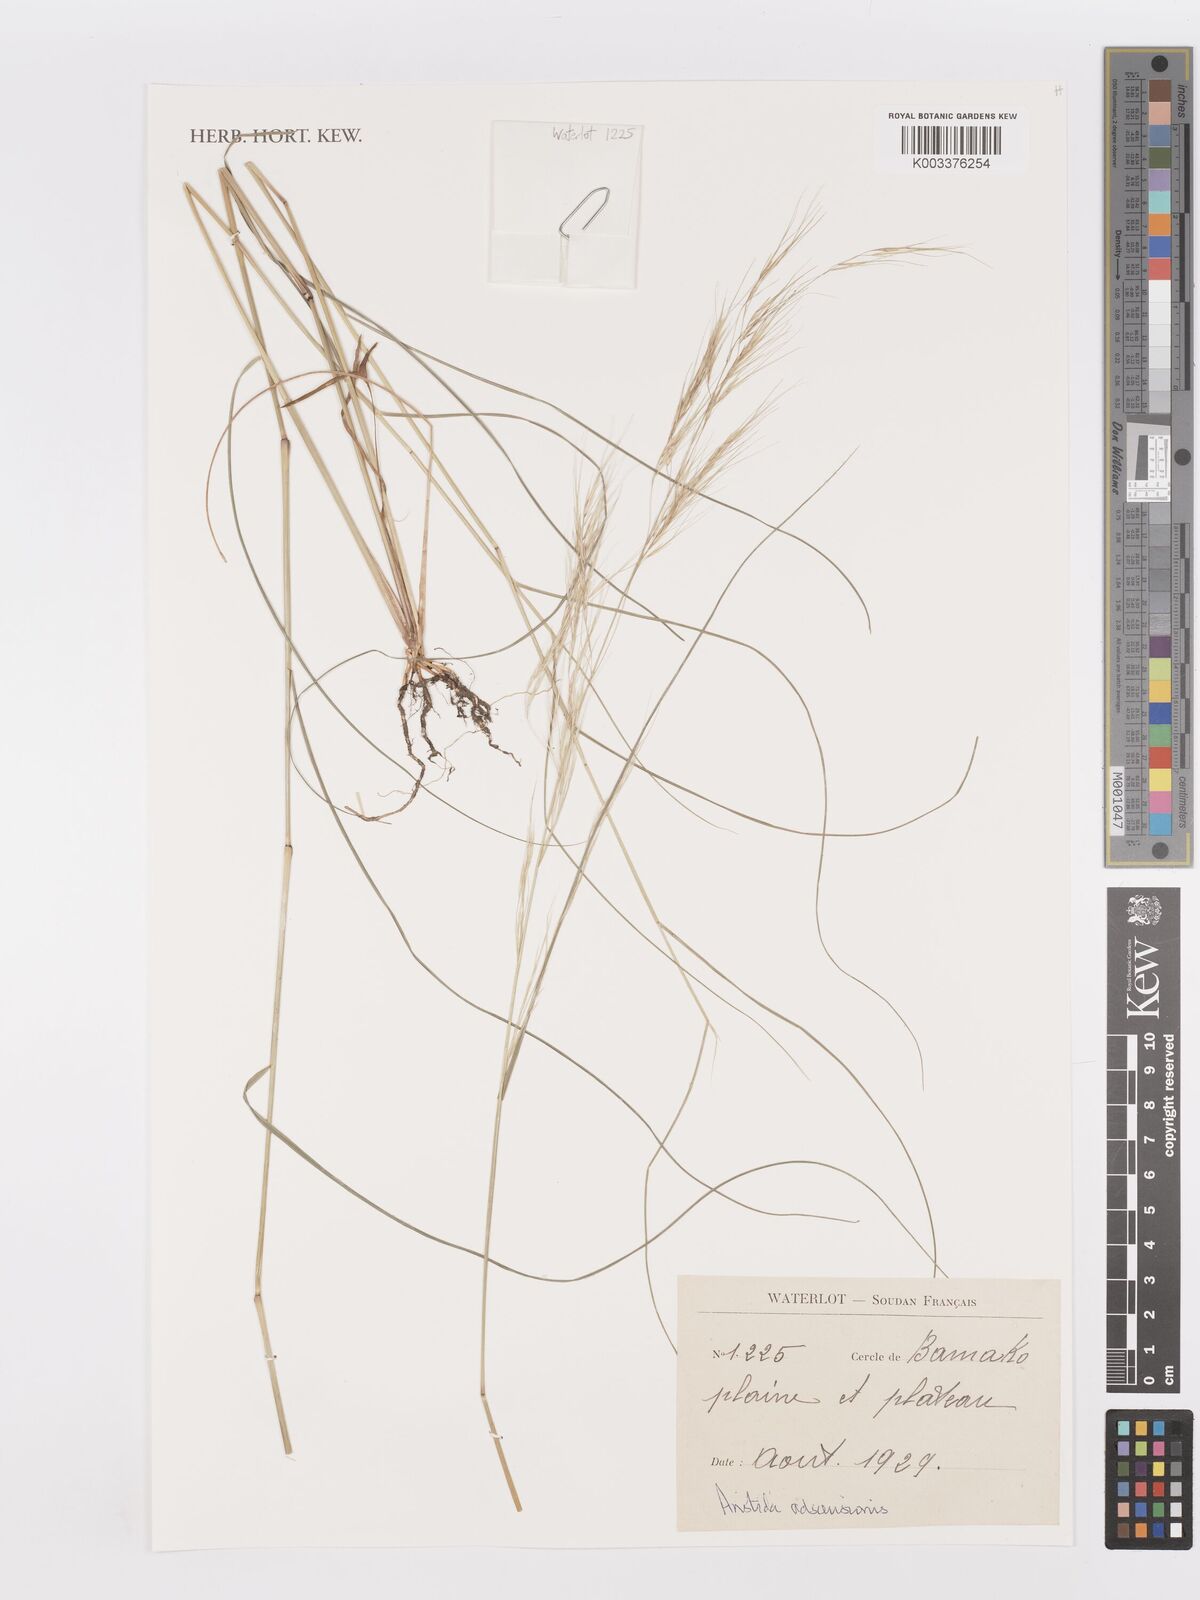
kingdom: Plantae
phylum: Tracheophyta
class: Liliopsida
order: Poales
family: Poaceae
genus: Aristida
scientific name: Aristida adscensionis
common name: Sixweeks threeawn
